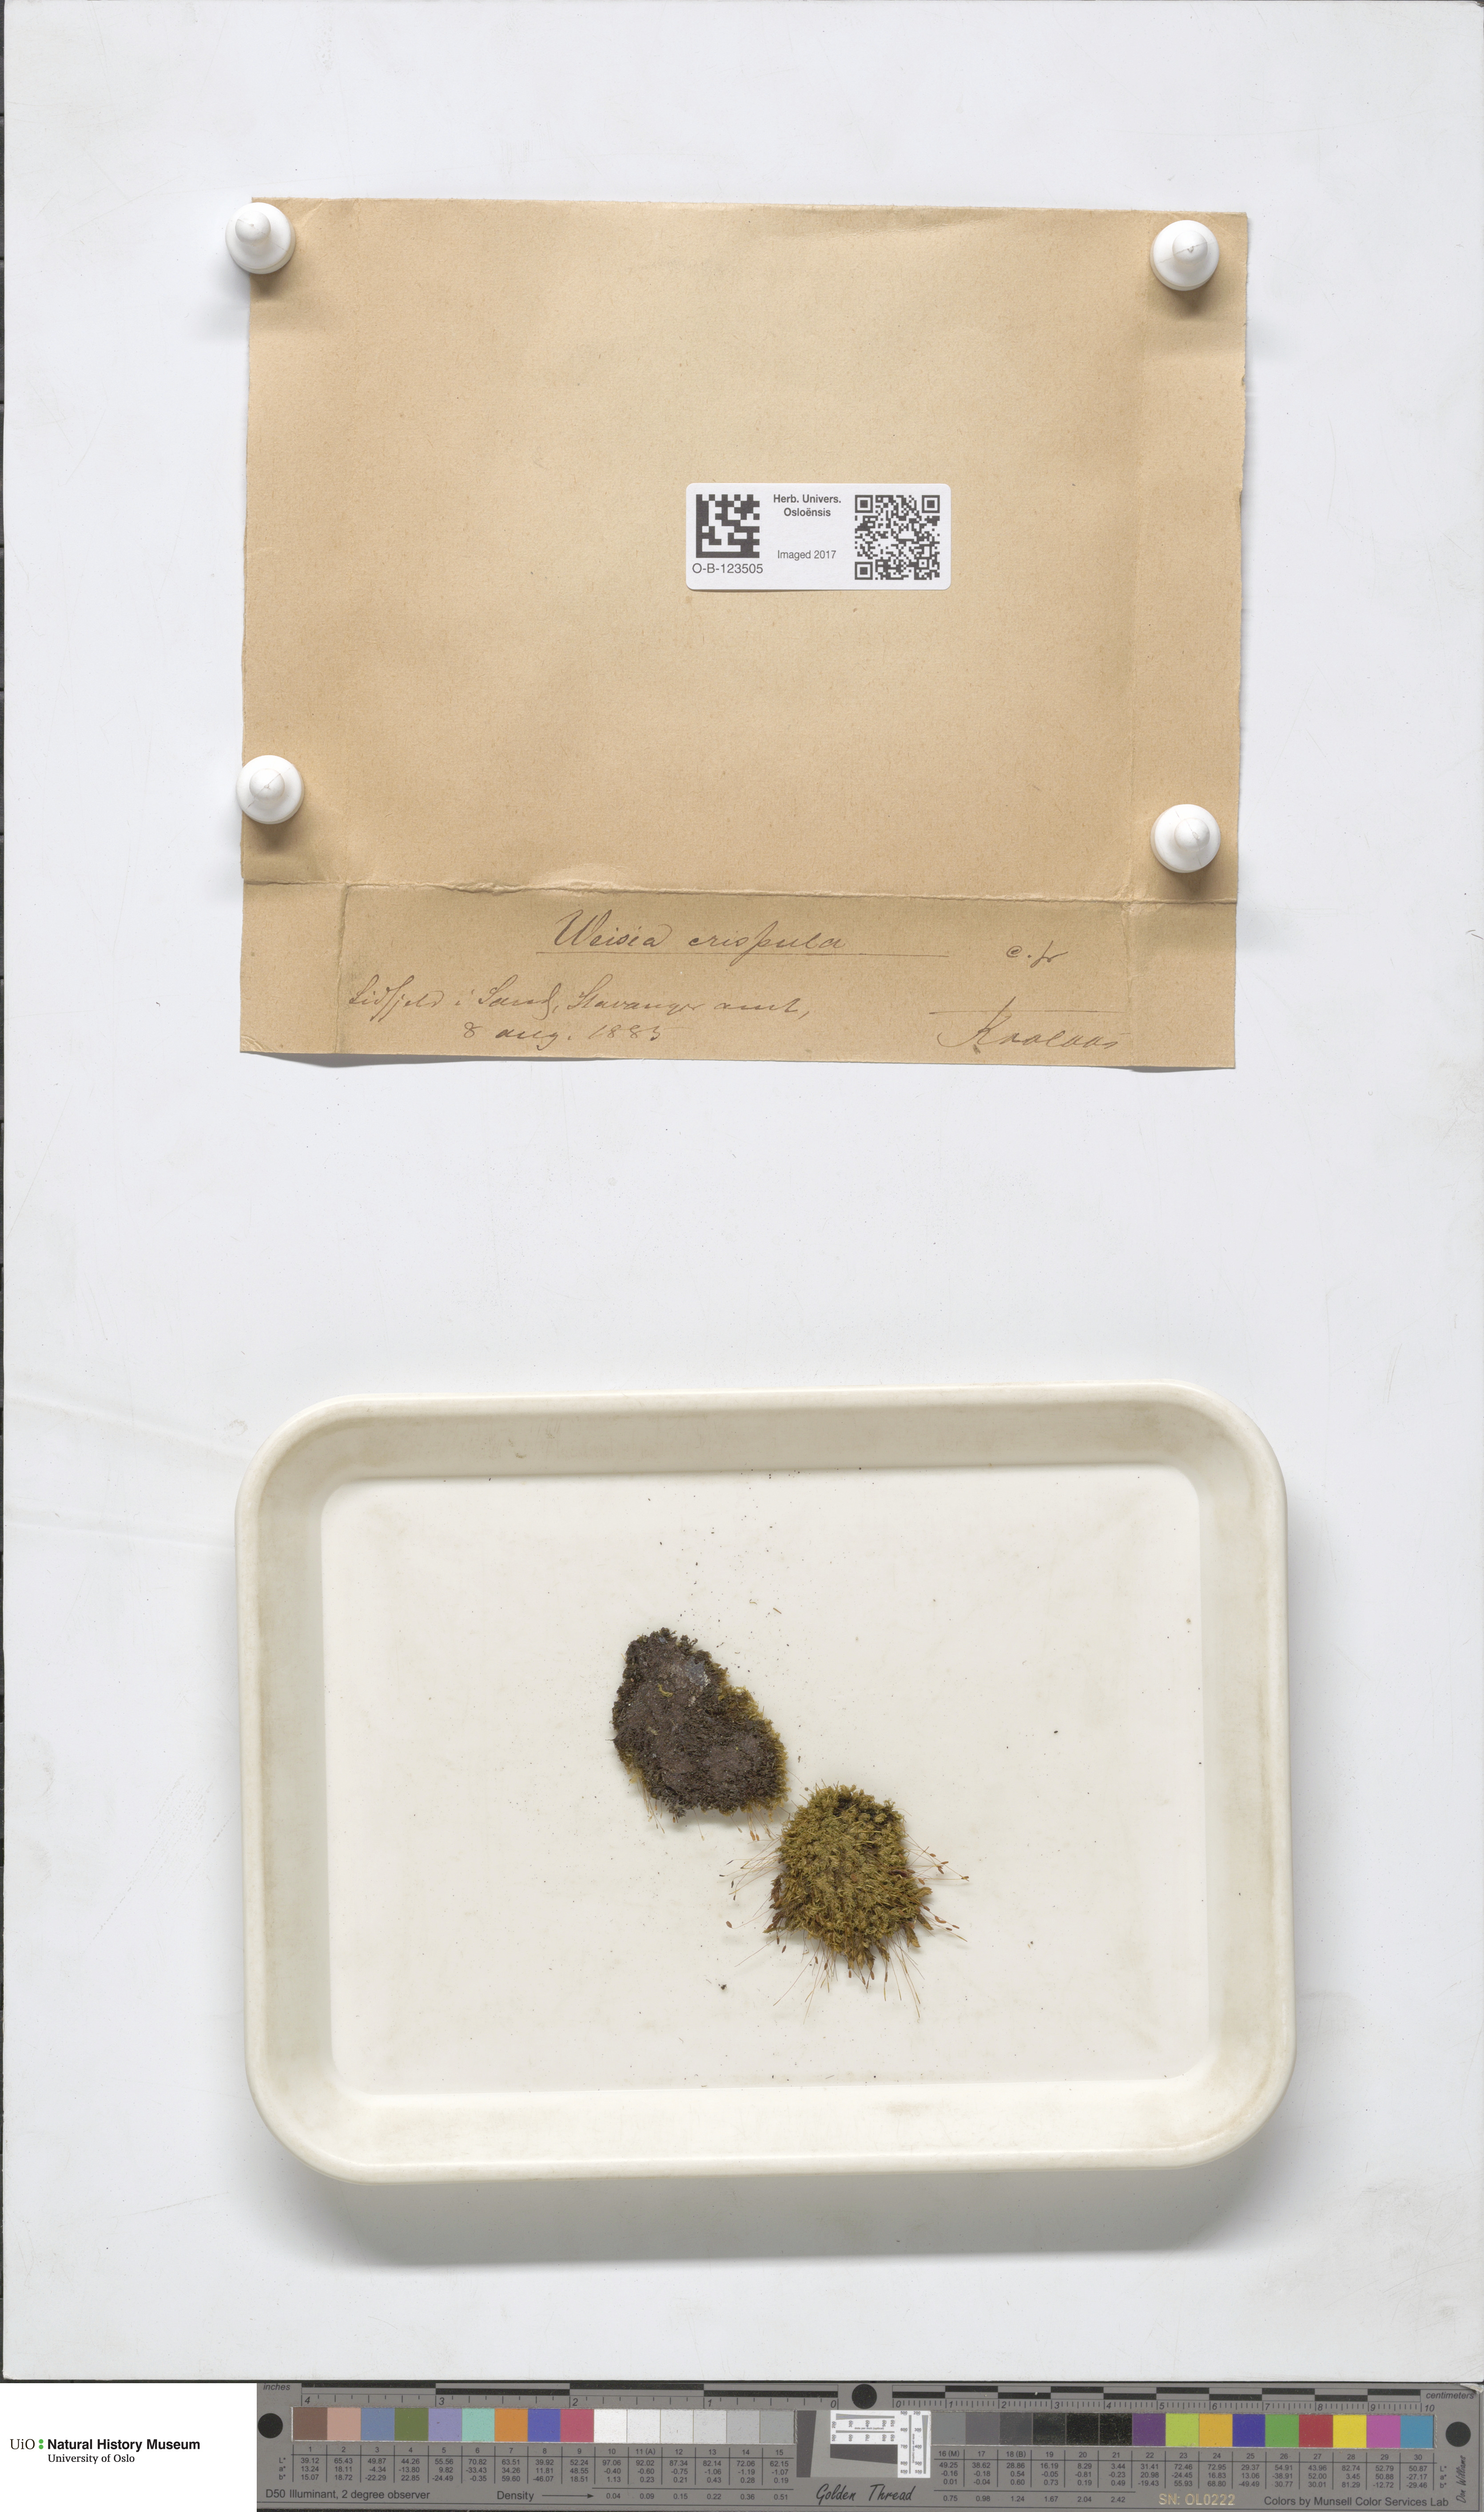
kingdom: Plantae
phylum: Bryophyta
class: Bryopsida
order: Scouleriales
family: Hymenolomataceae
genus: Hymenoloma
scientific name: Hymenoloma crispulum
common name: Mountain pincushion
